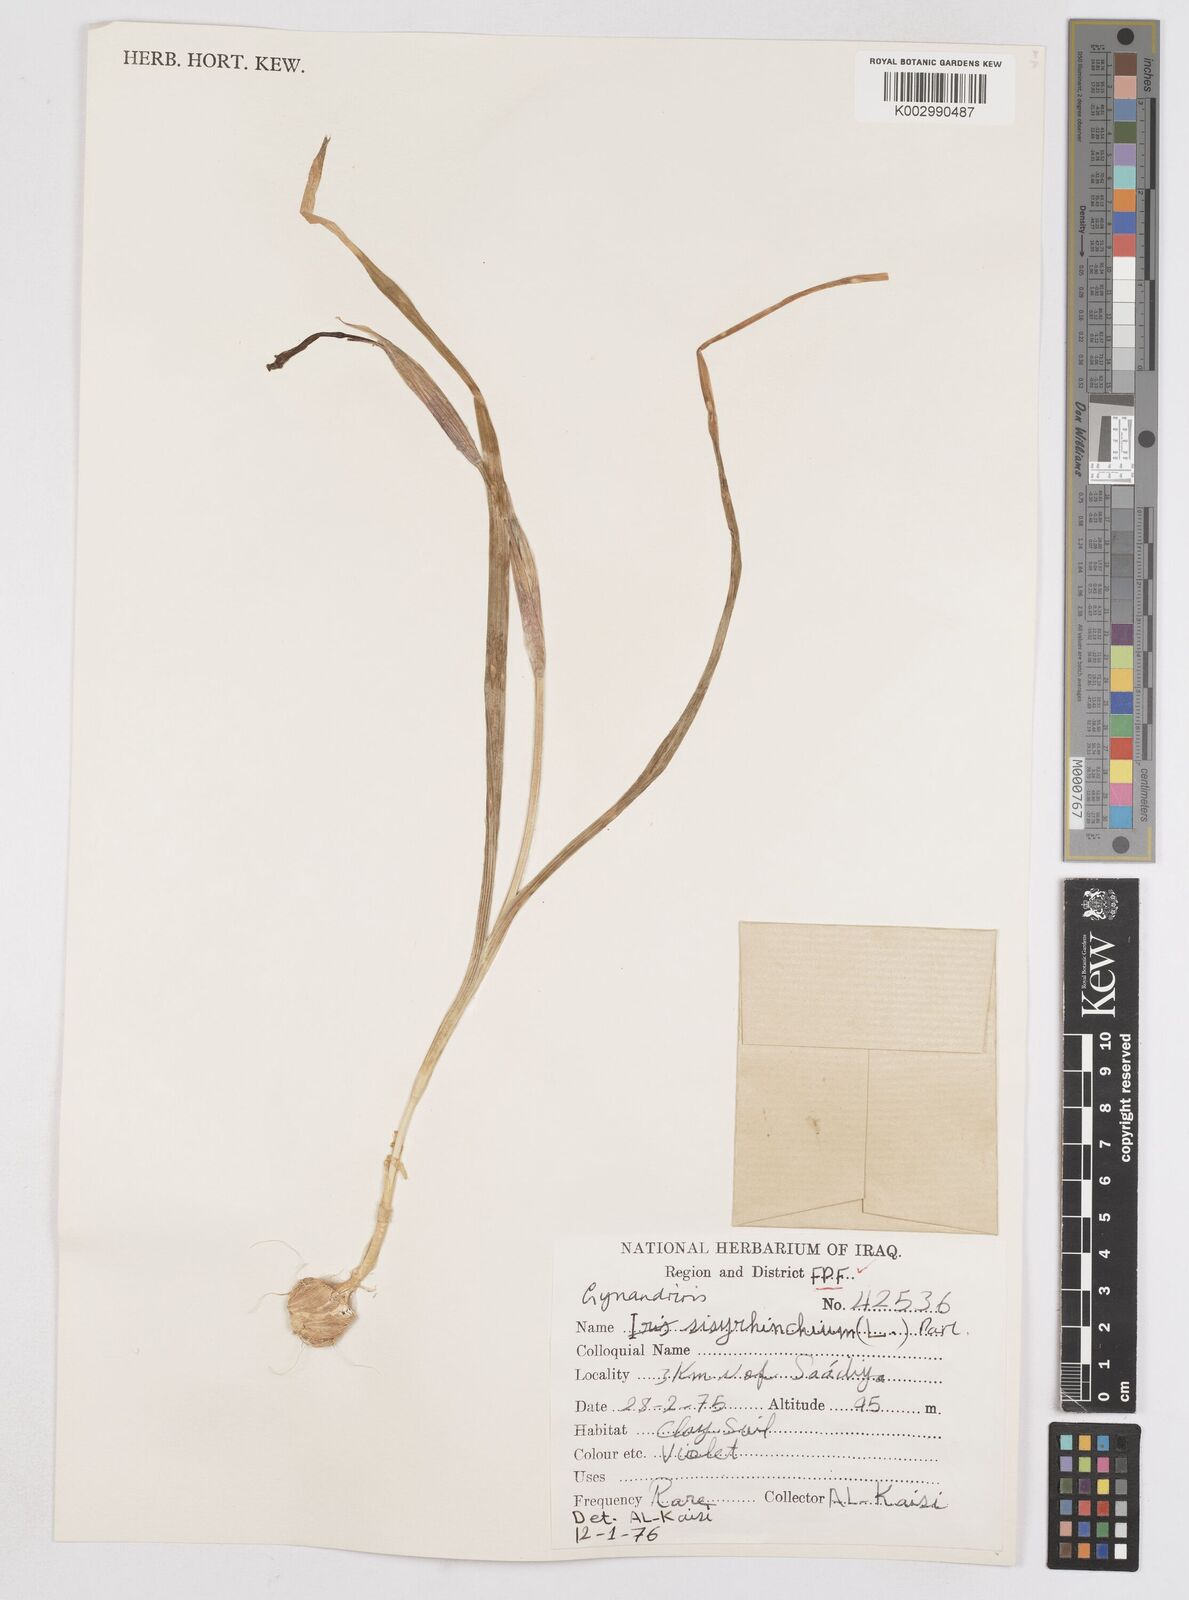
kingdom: Plantae
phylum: Tracheophyta
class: Liliopsida
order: Asparagales
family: Iridaceae
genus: Moraea
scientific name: Moraea sisyrinchium
